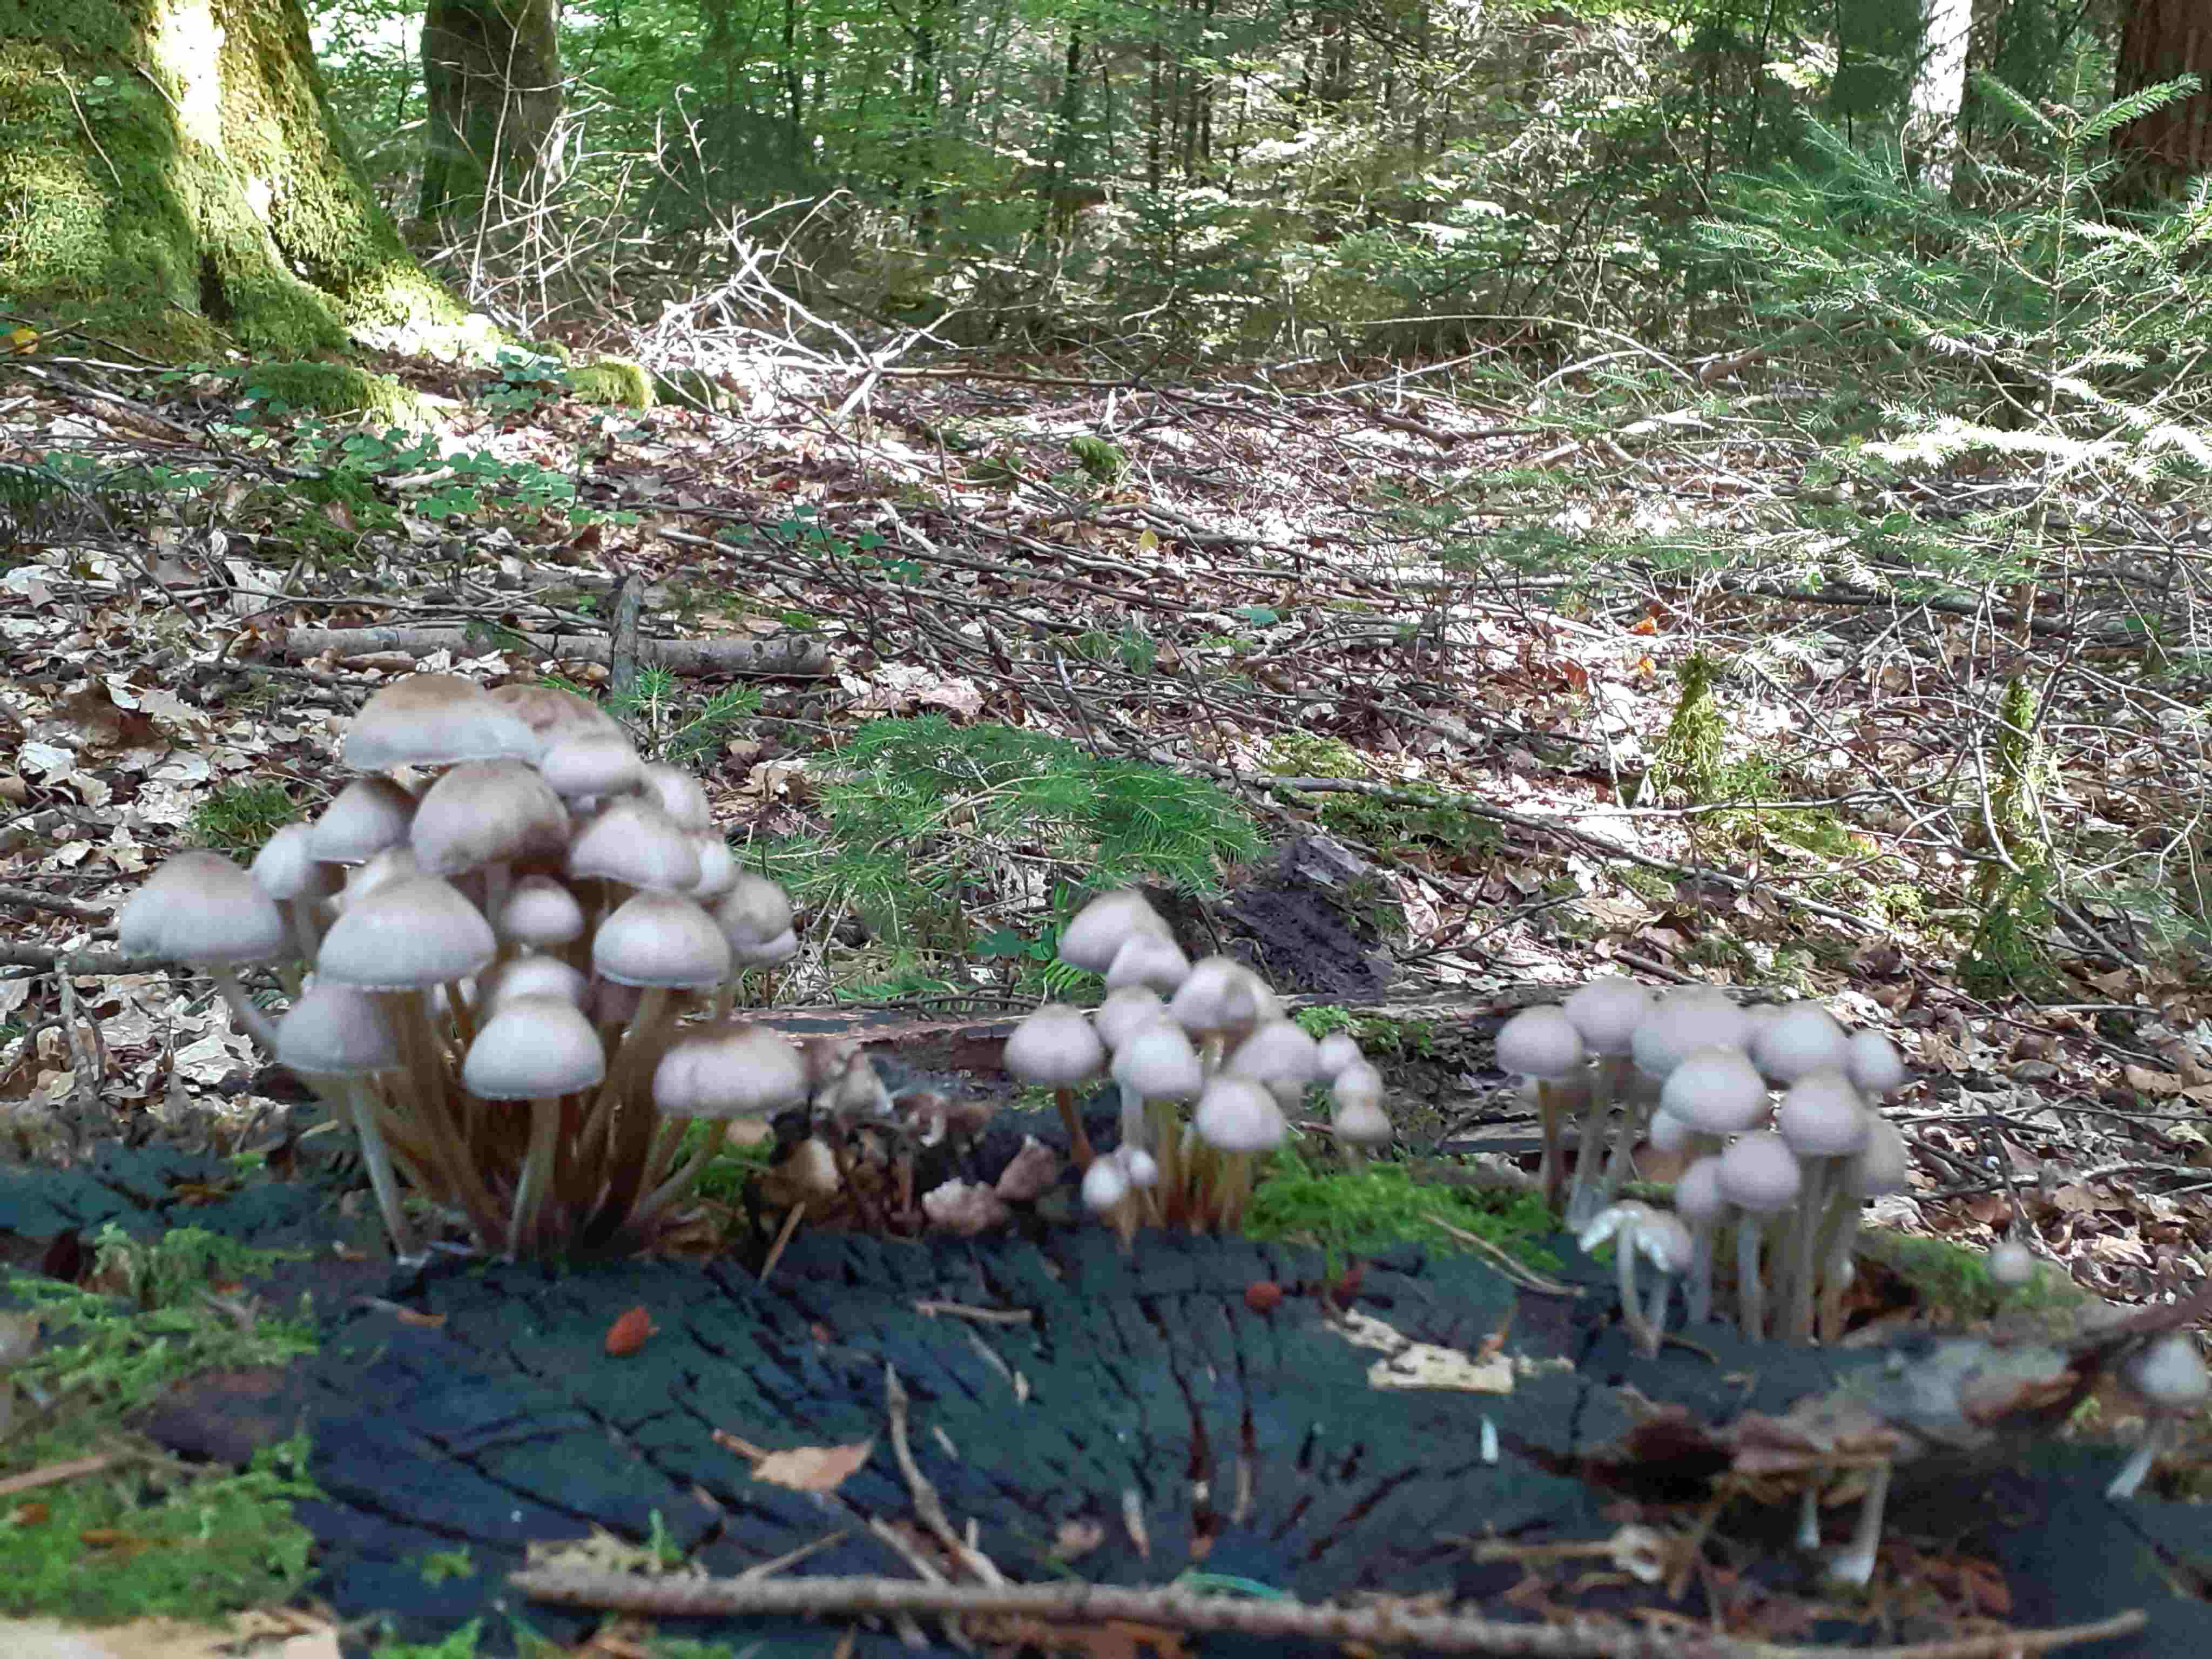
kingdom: Fungi
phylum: Basidiomycota
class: Agaricomycetes
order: Agaricales
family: Mycenaceae
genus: Mycena
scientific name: Mycena inclinata
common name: nikkende huesvamp
